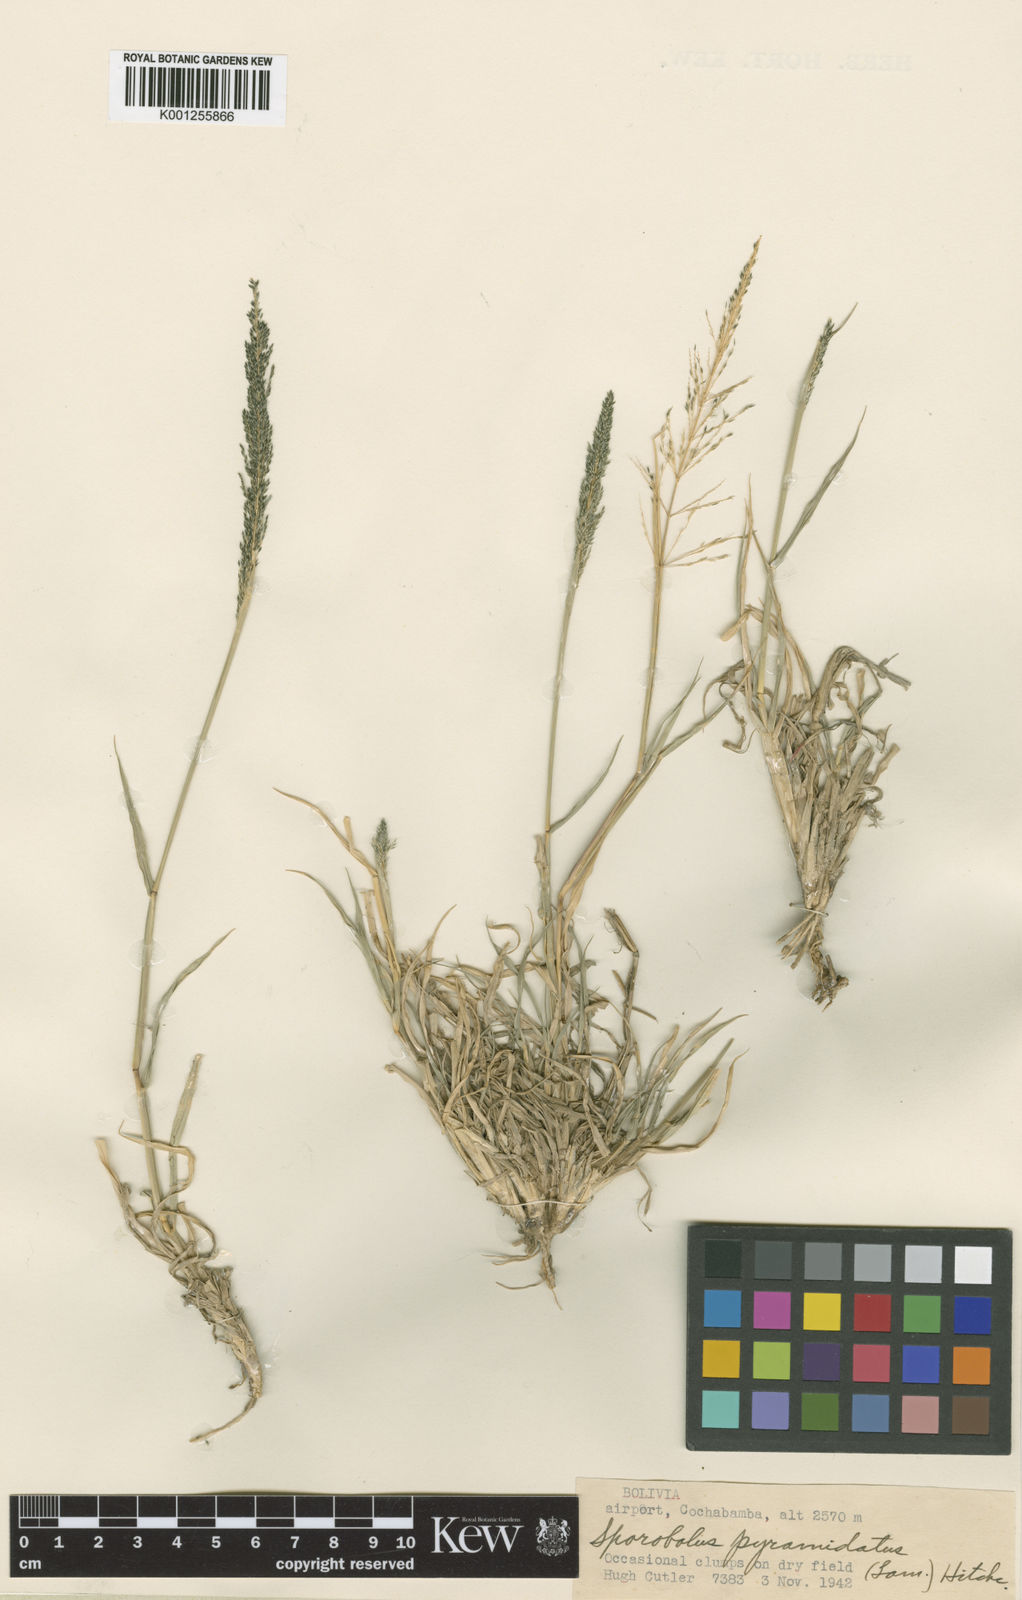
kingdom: Plantae
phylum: Tracheophyta
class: Liliopsida
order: Poales
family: Poaceae
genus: Sporobolus
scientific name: Sporobolus pyramidatus
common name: Whorled dropseed
